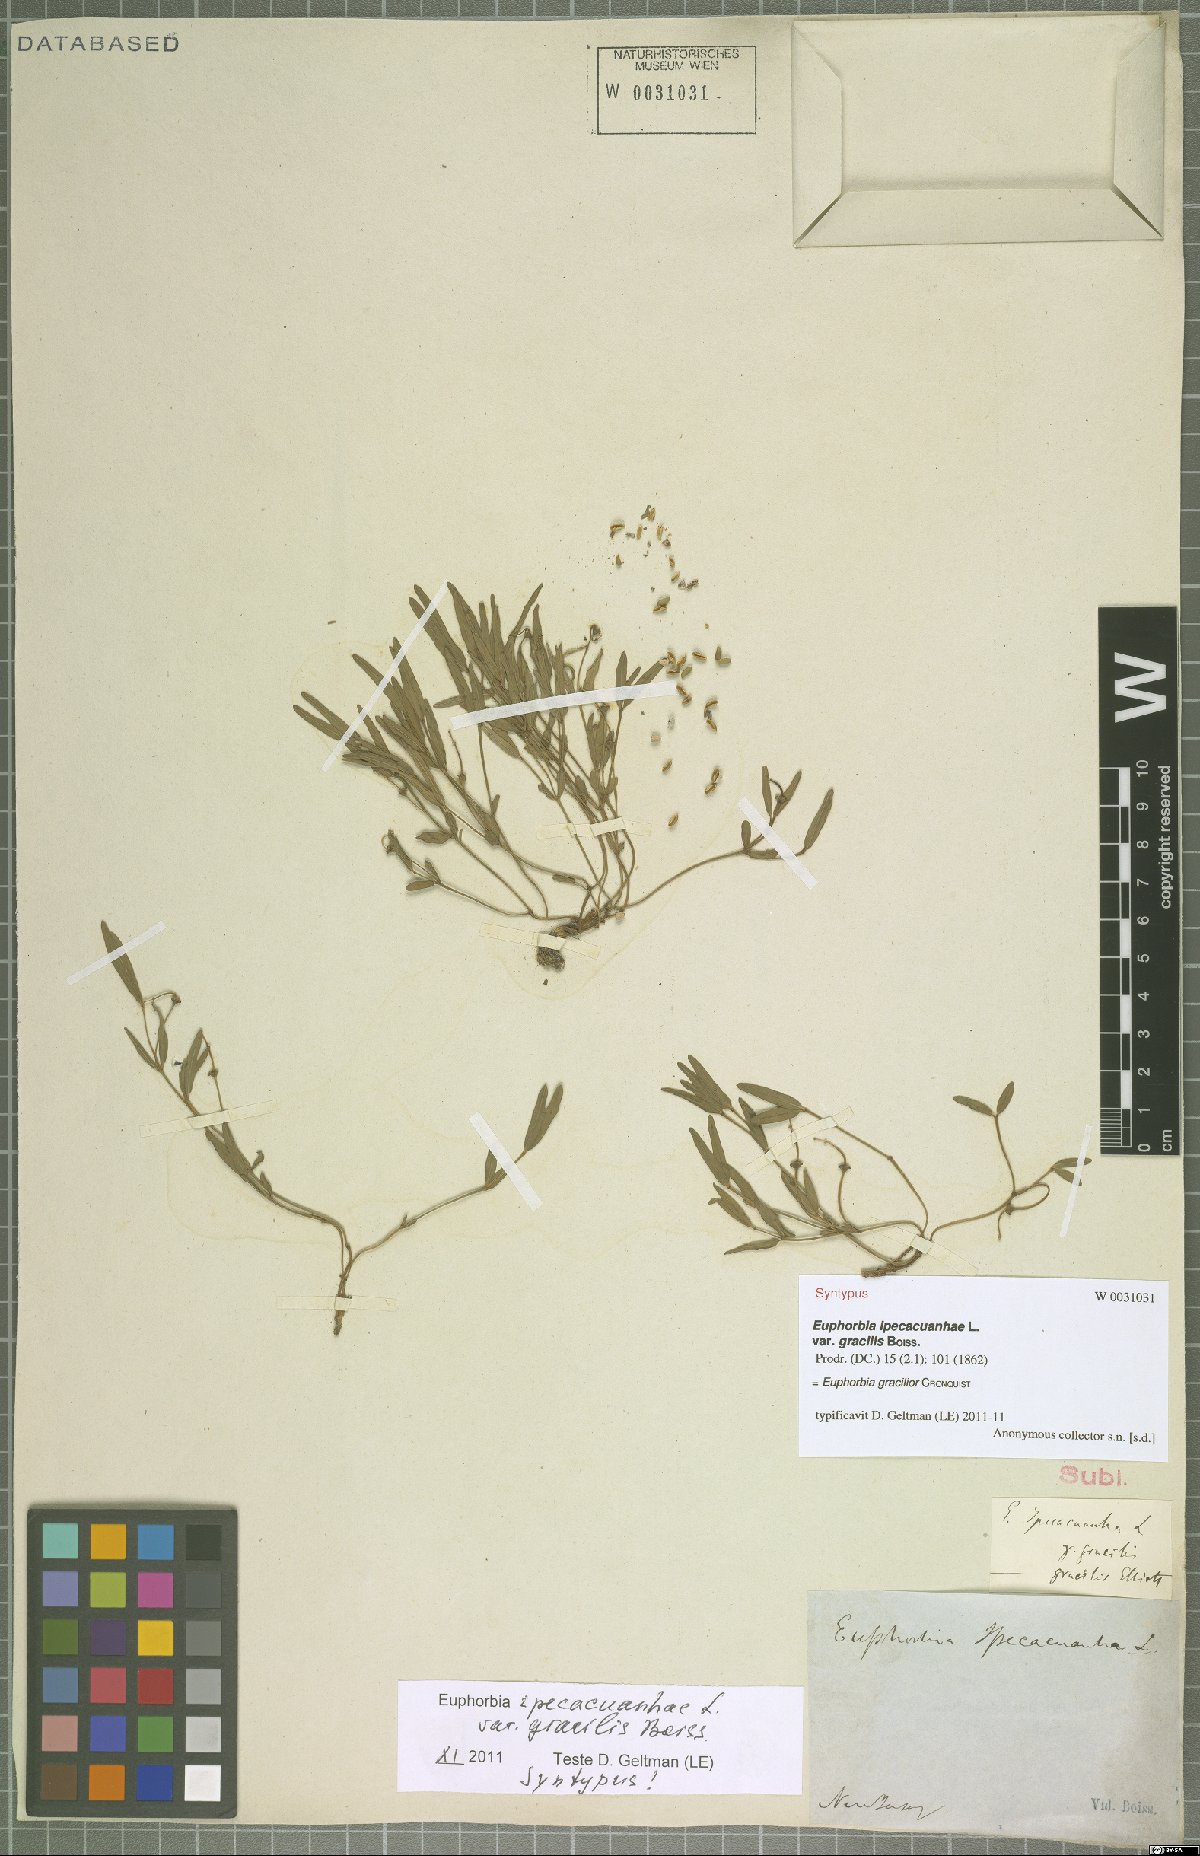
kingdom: Plantae
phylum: Tracheophyta
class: Magnoliopsida
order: Malpighiales
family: Euphorbiaceae
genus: Euphorbia
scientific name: Euphorbia exserta
